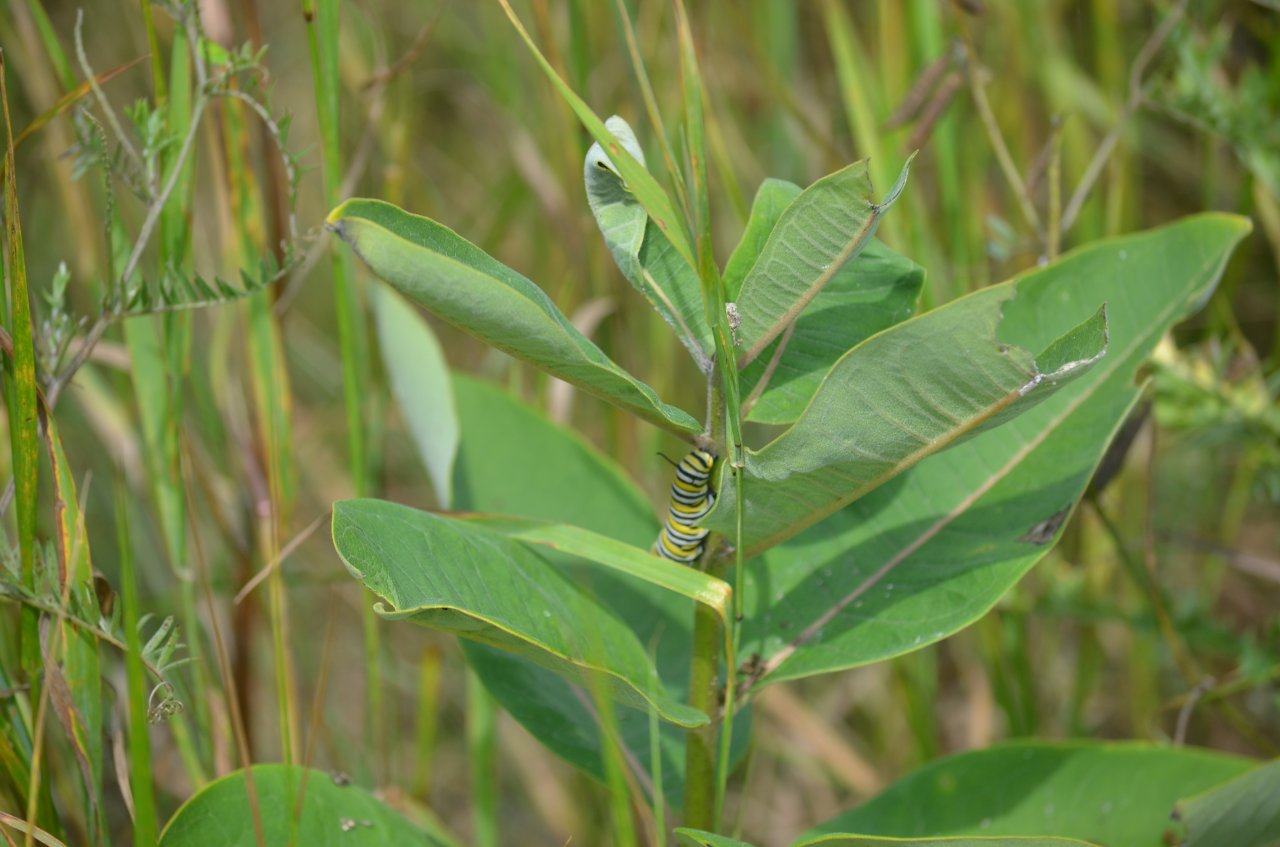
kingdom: Animalia
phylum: Arthropoda
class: Insecta
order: Lepidoptera
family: Nymphalidae
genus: Danaus
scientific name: Danaus plexippus
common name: Monarch
